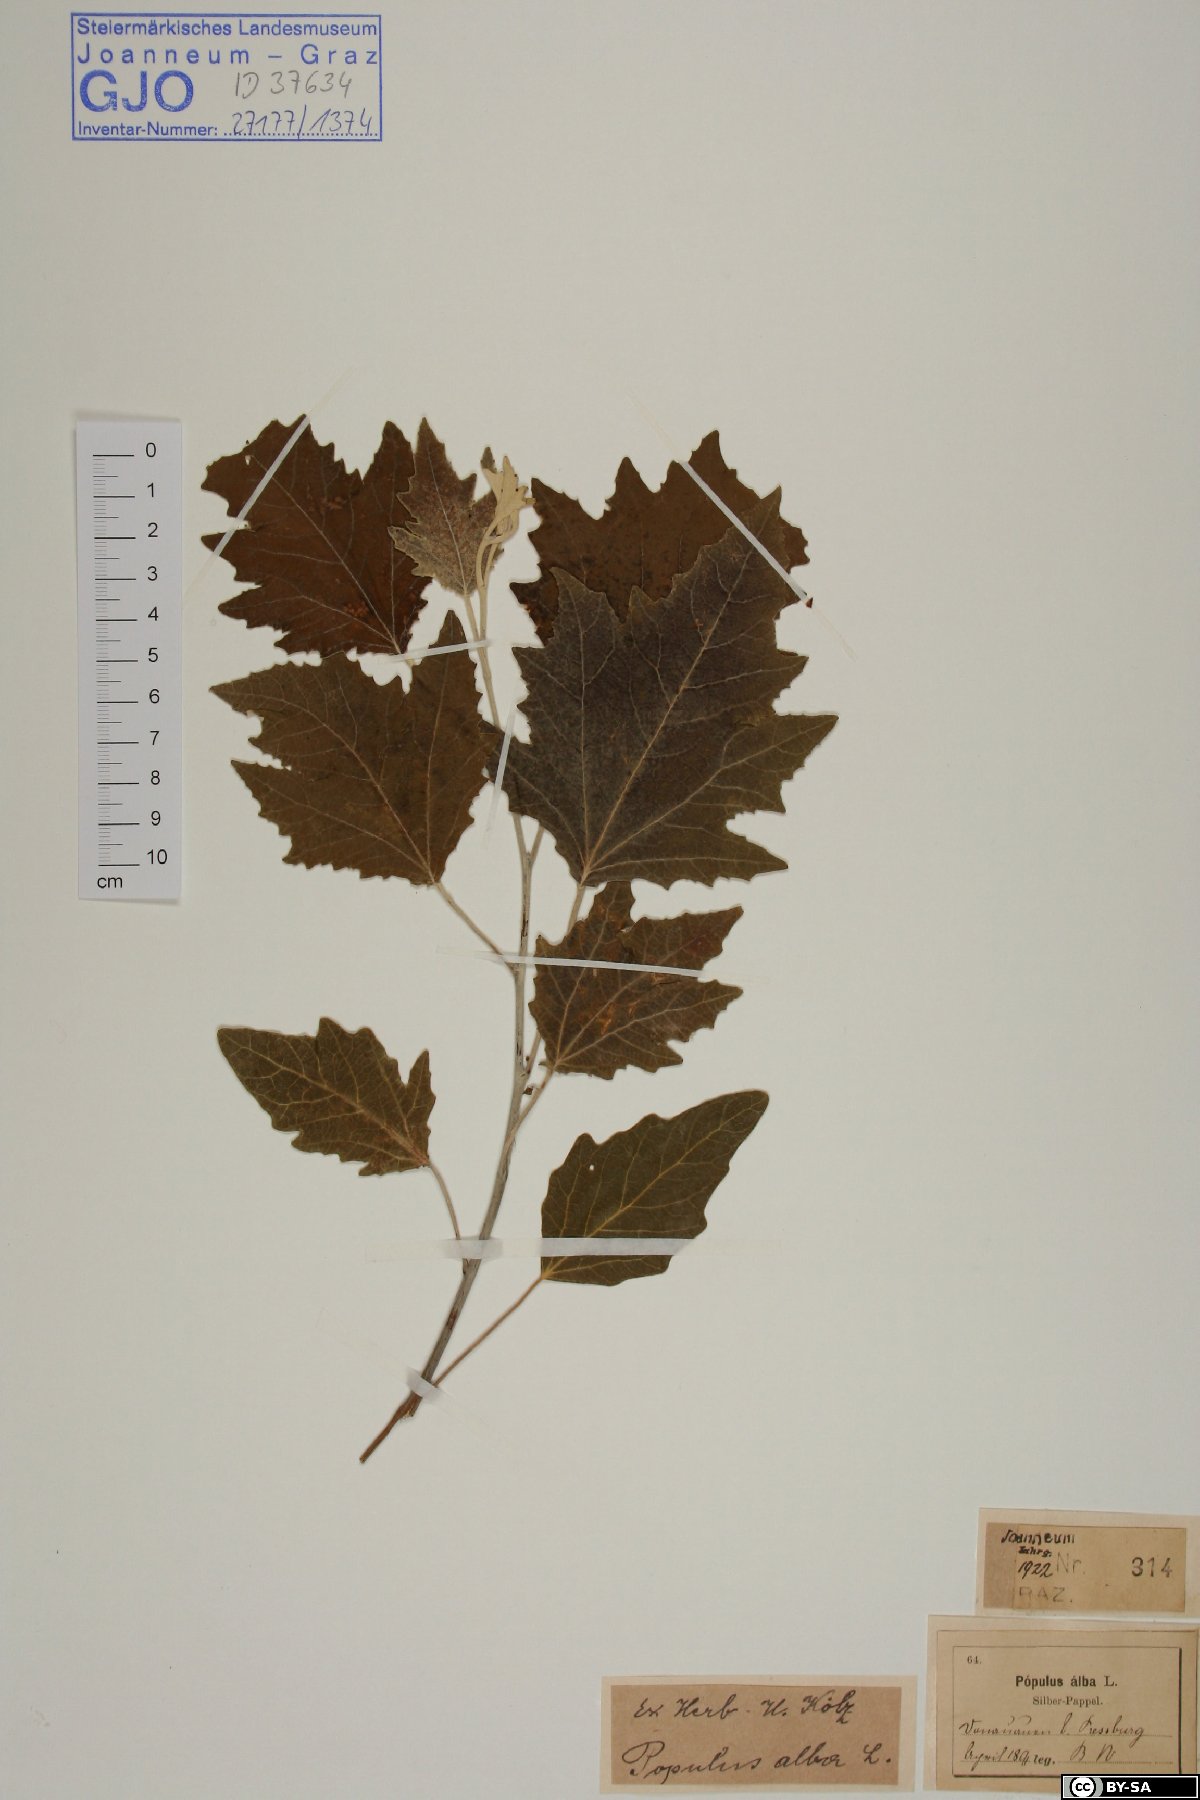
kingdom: Plantae
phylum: Tracheophyta
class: Magnoliopsida
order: Malpighiales
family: Salicaceae
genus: Populus
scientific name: Populus alba
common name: White poplar
